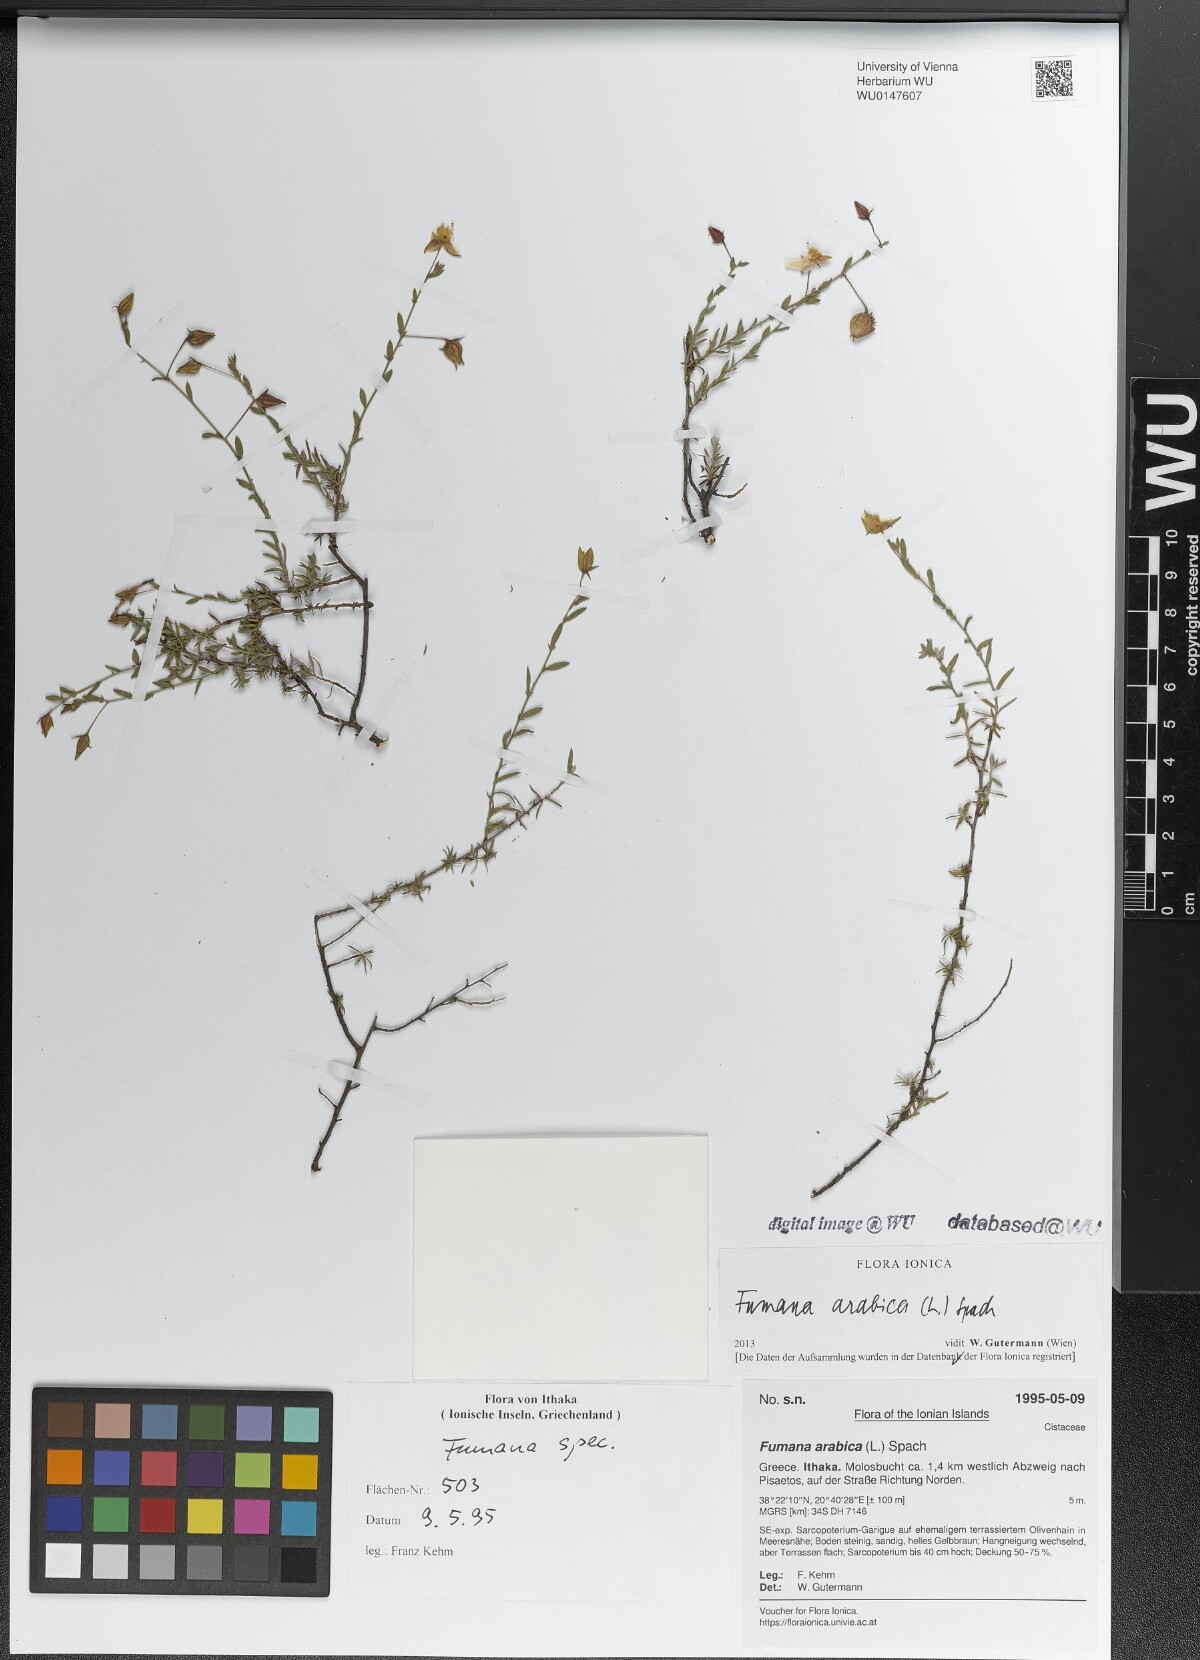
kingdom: Plantae
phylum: Tracheophyta
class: Magnoliopsida
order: Malvales
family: Cistaceae
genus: Fumana
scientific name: Fumana arabica
